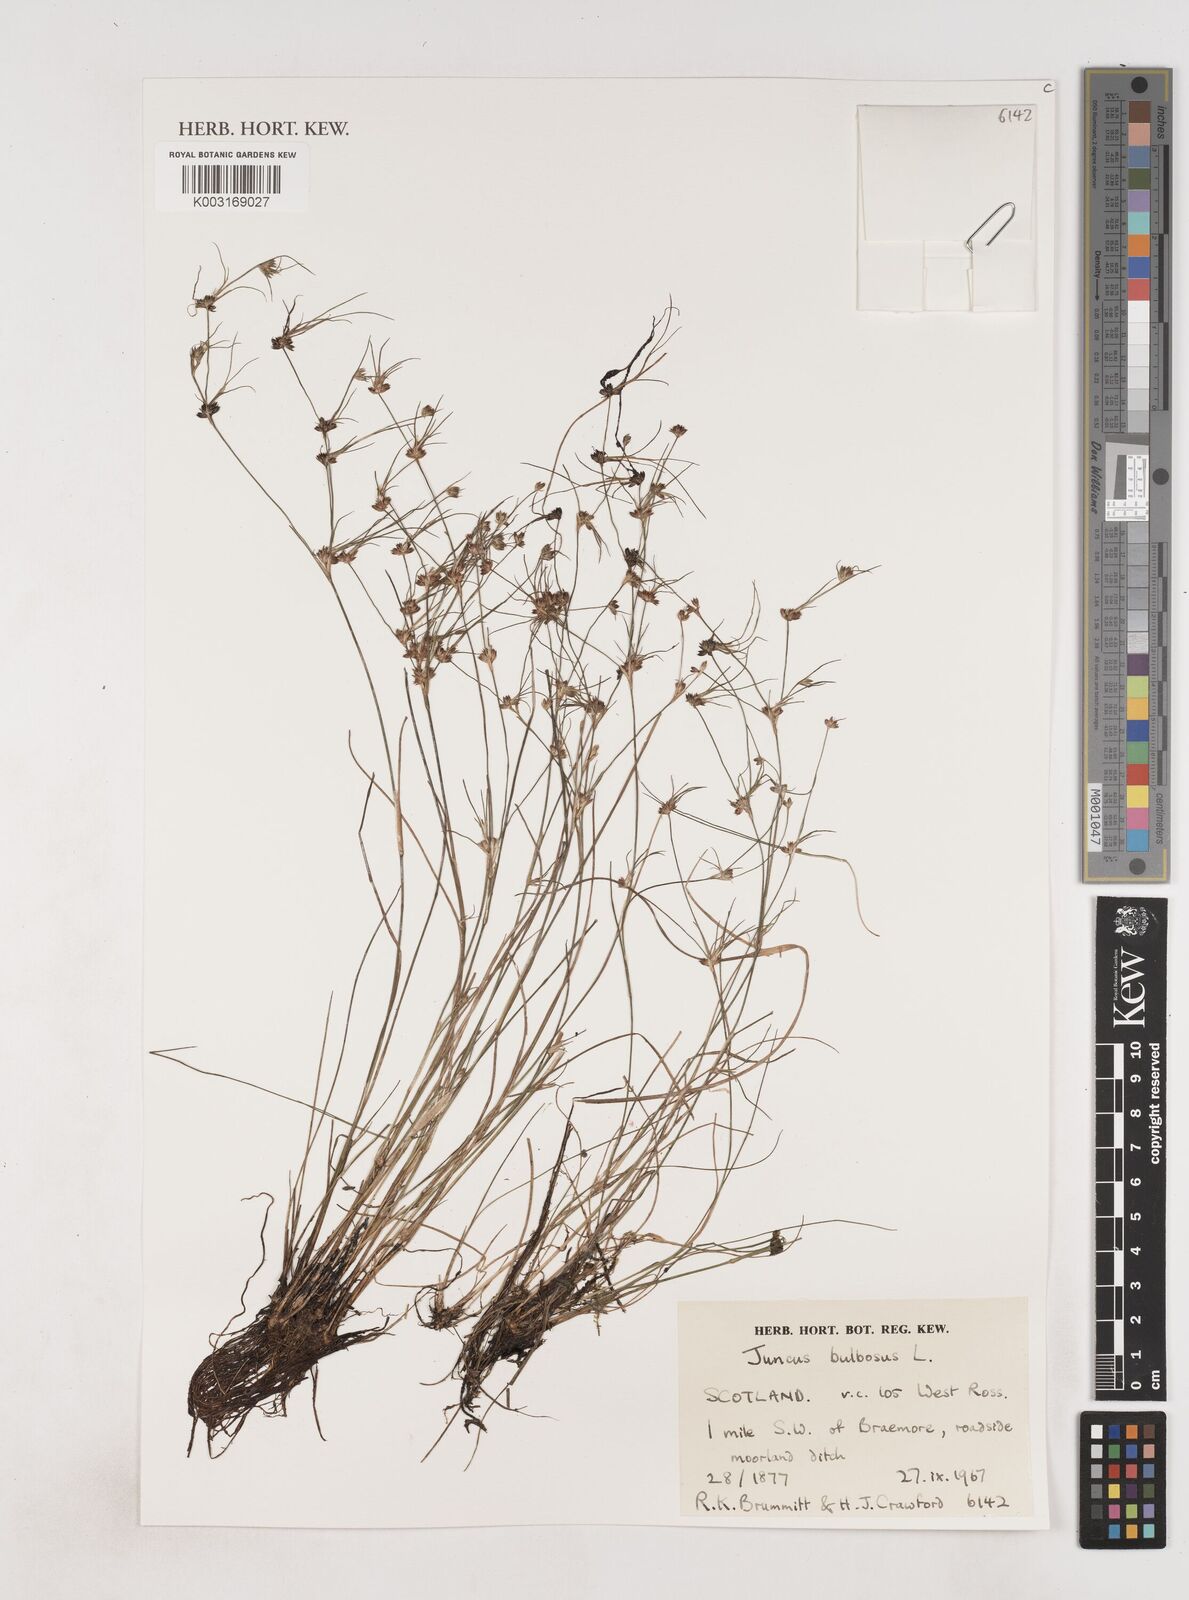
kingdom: Plantae
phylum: Tracheophyta
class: Liliopsida
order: Poales
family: Juncaceae
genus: Juncus
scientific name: Juncus bulbosus
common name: Bulbous rush
